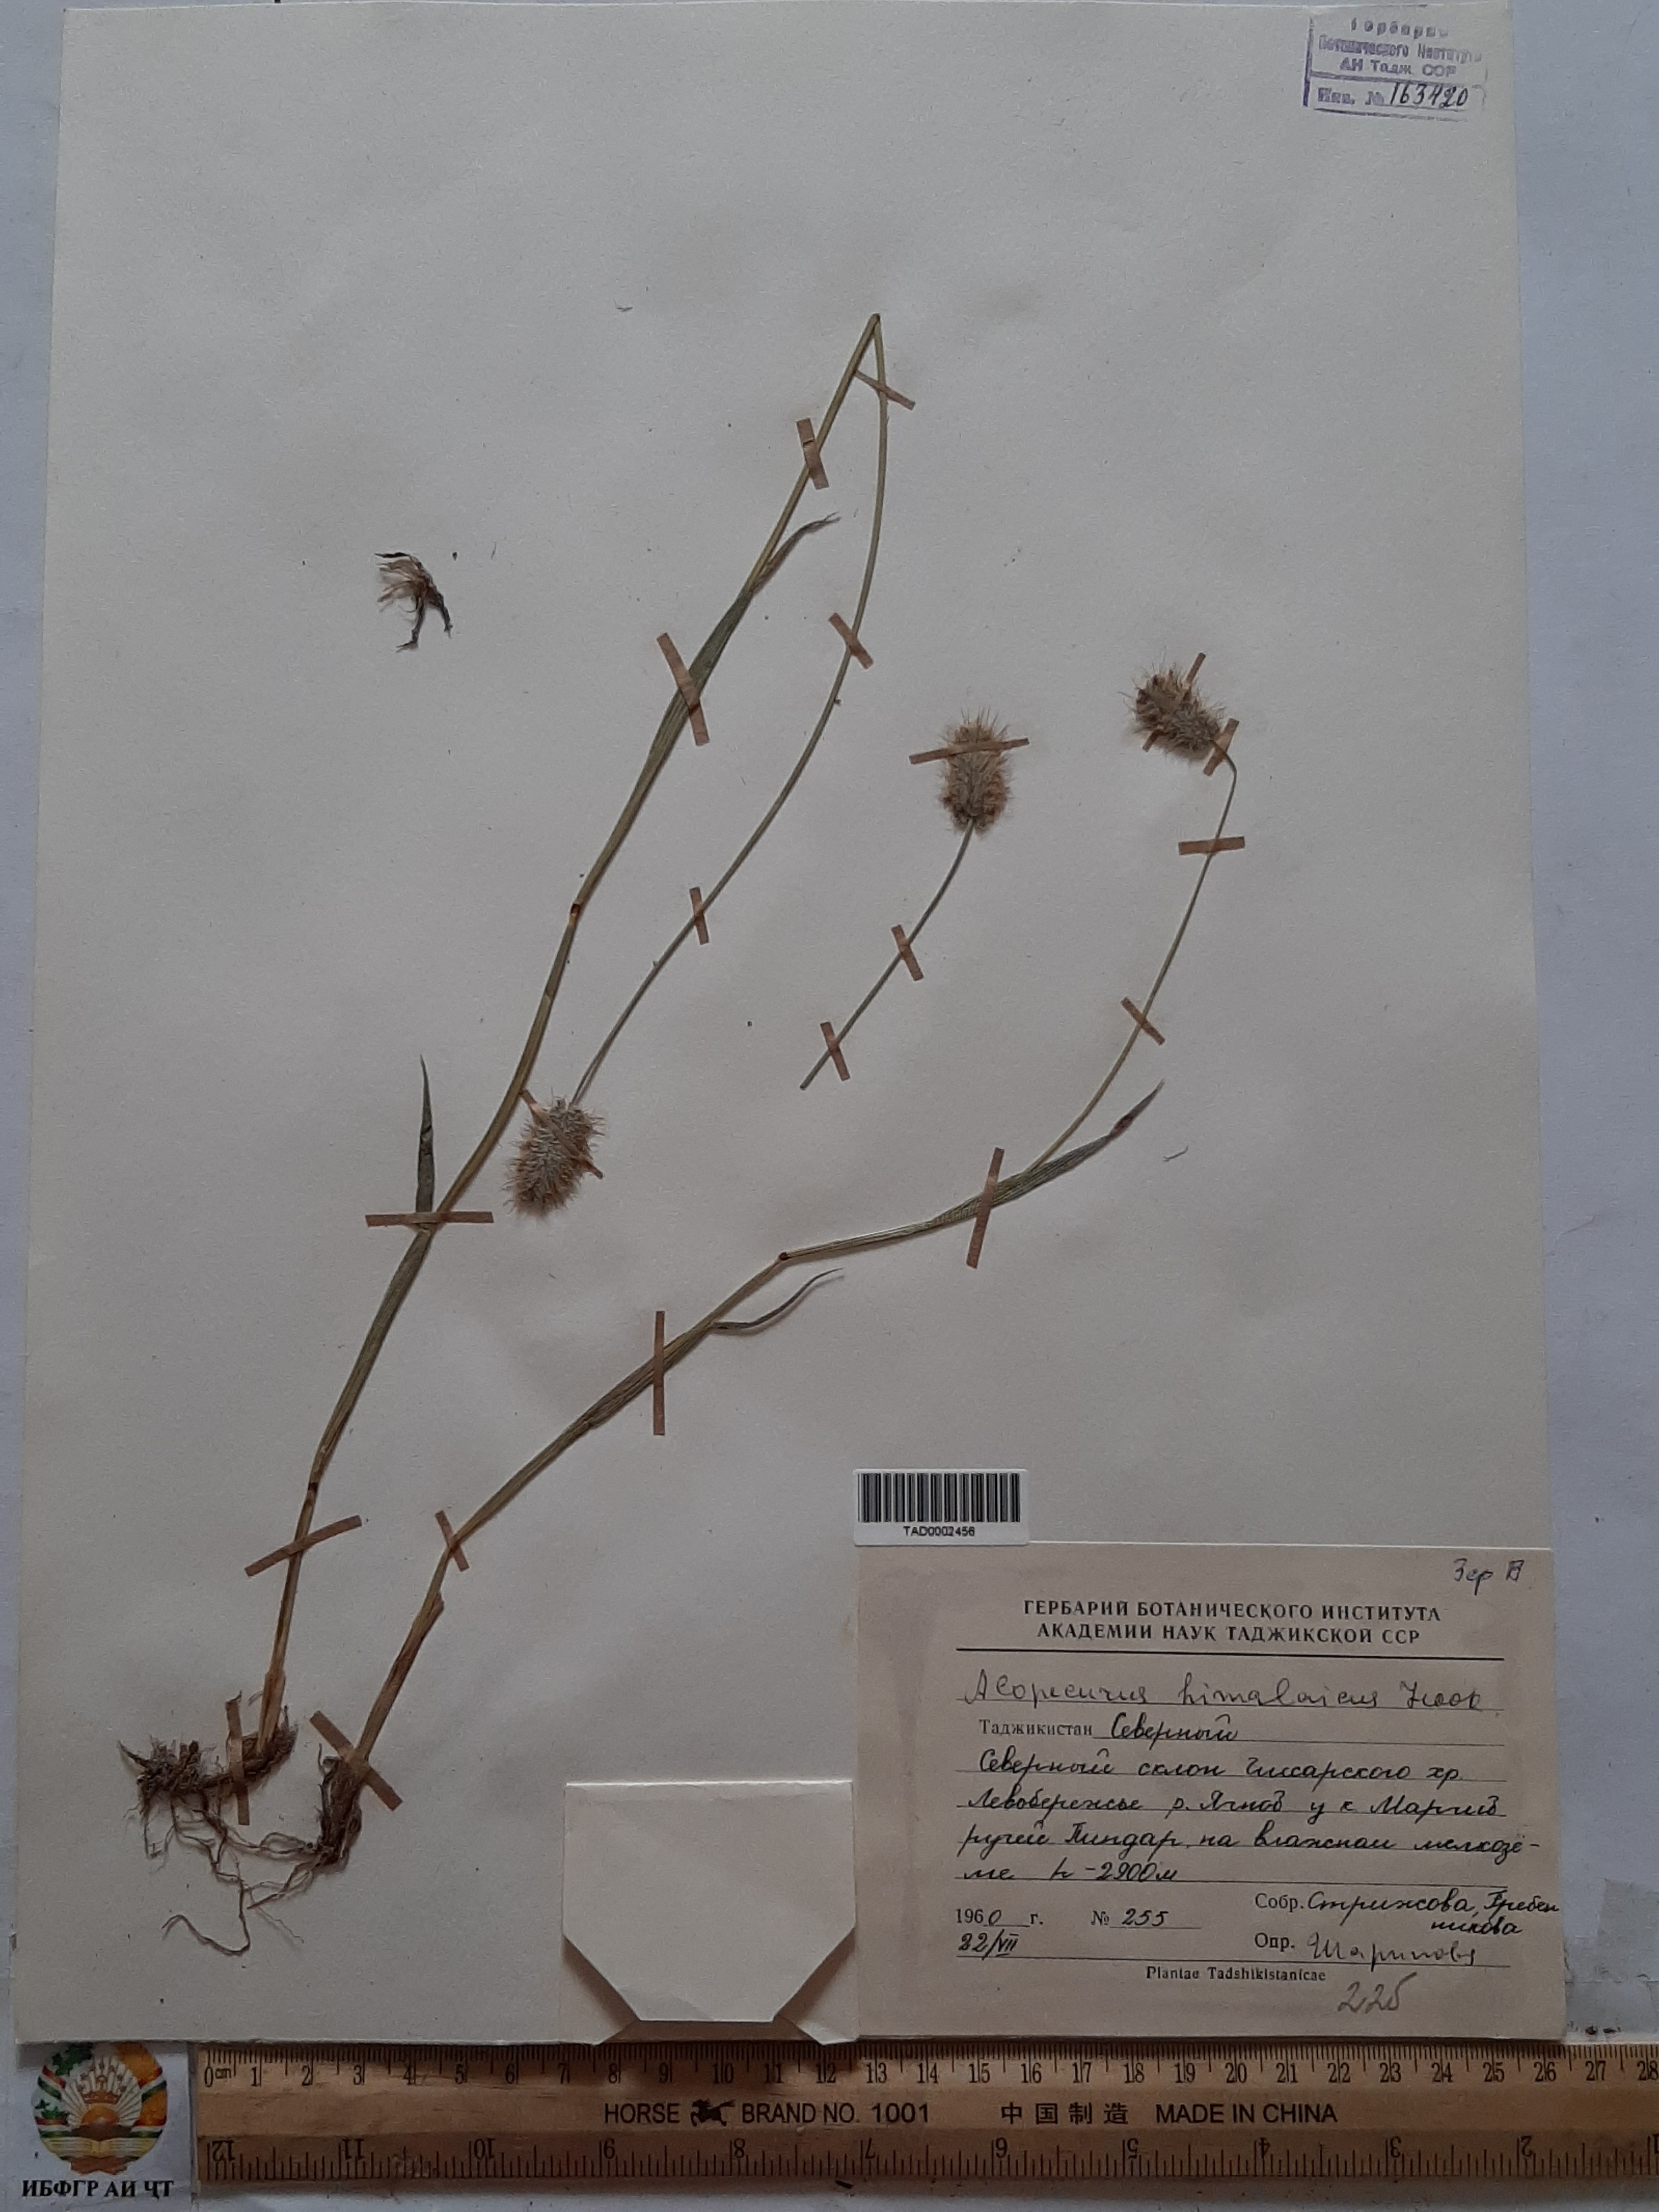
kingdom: Plantae
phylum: Tracheophyta
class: Liliopsida
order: Poales
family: Poaceae
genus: Alopecurus
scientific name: Alopecurus himalaicus
